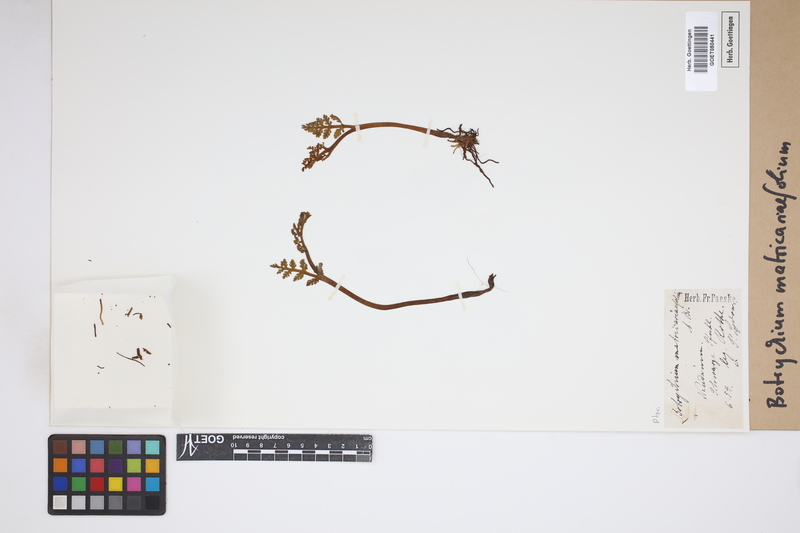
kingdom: Plantae
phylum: Tracheophyta
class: Polypodiopsida
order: Ophioglossales
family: Ophioglossaceae
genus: Botrychium
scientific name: Botrychium matricariifolium
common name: Branched moonwort
